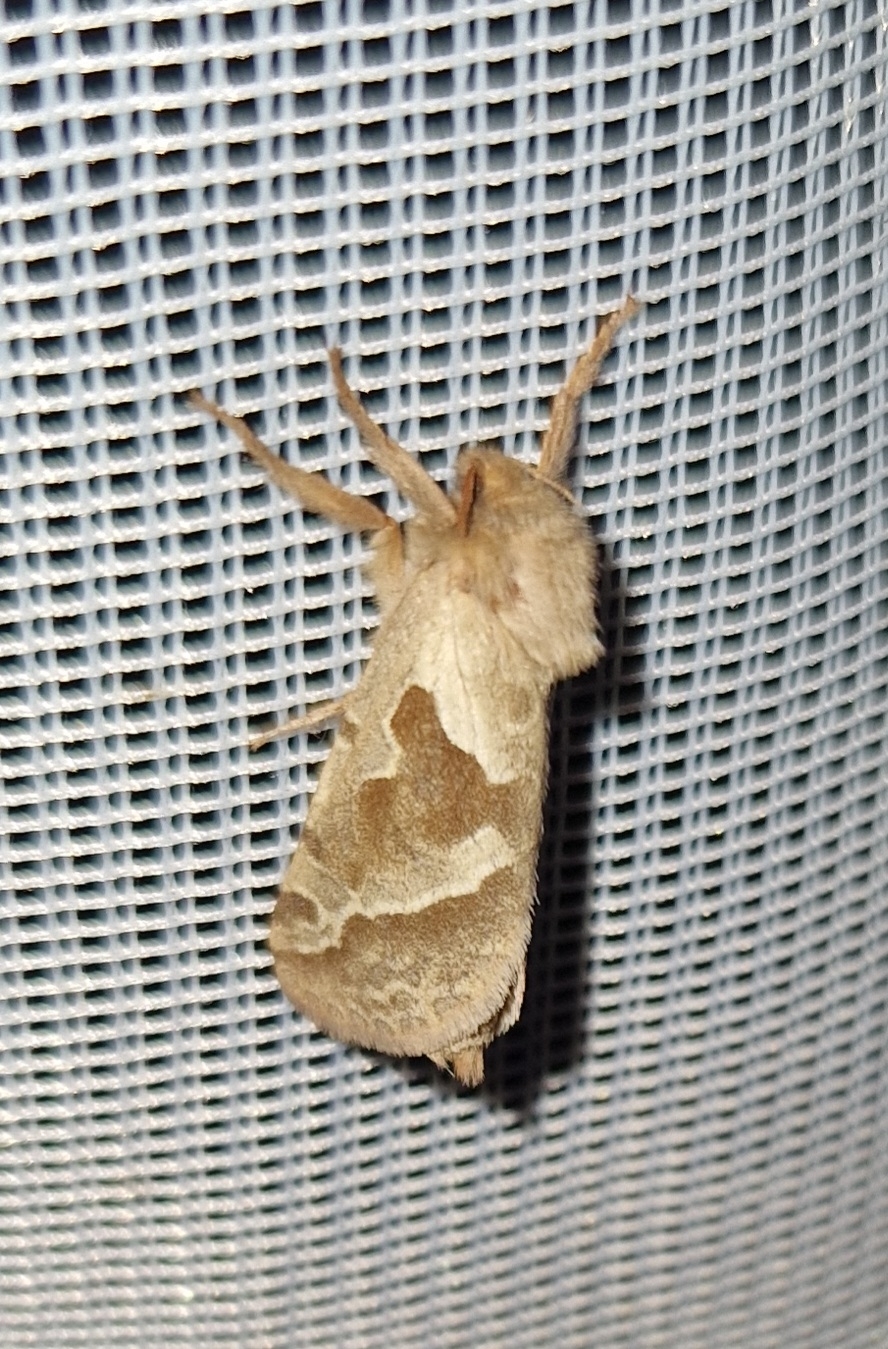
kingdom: Animalia
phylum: Arthropoda
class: Insecta
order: Lepidoptera
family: Hepialidae
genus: Triodia
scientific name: Triodia sylvina
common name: Skræpperodæder
